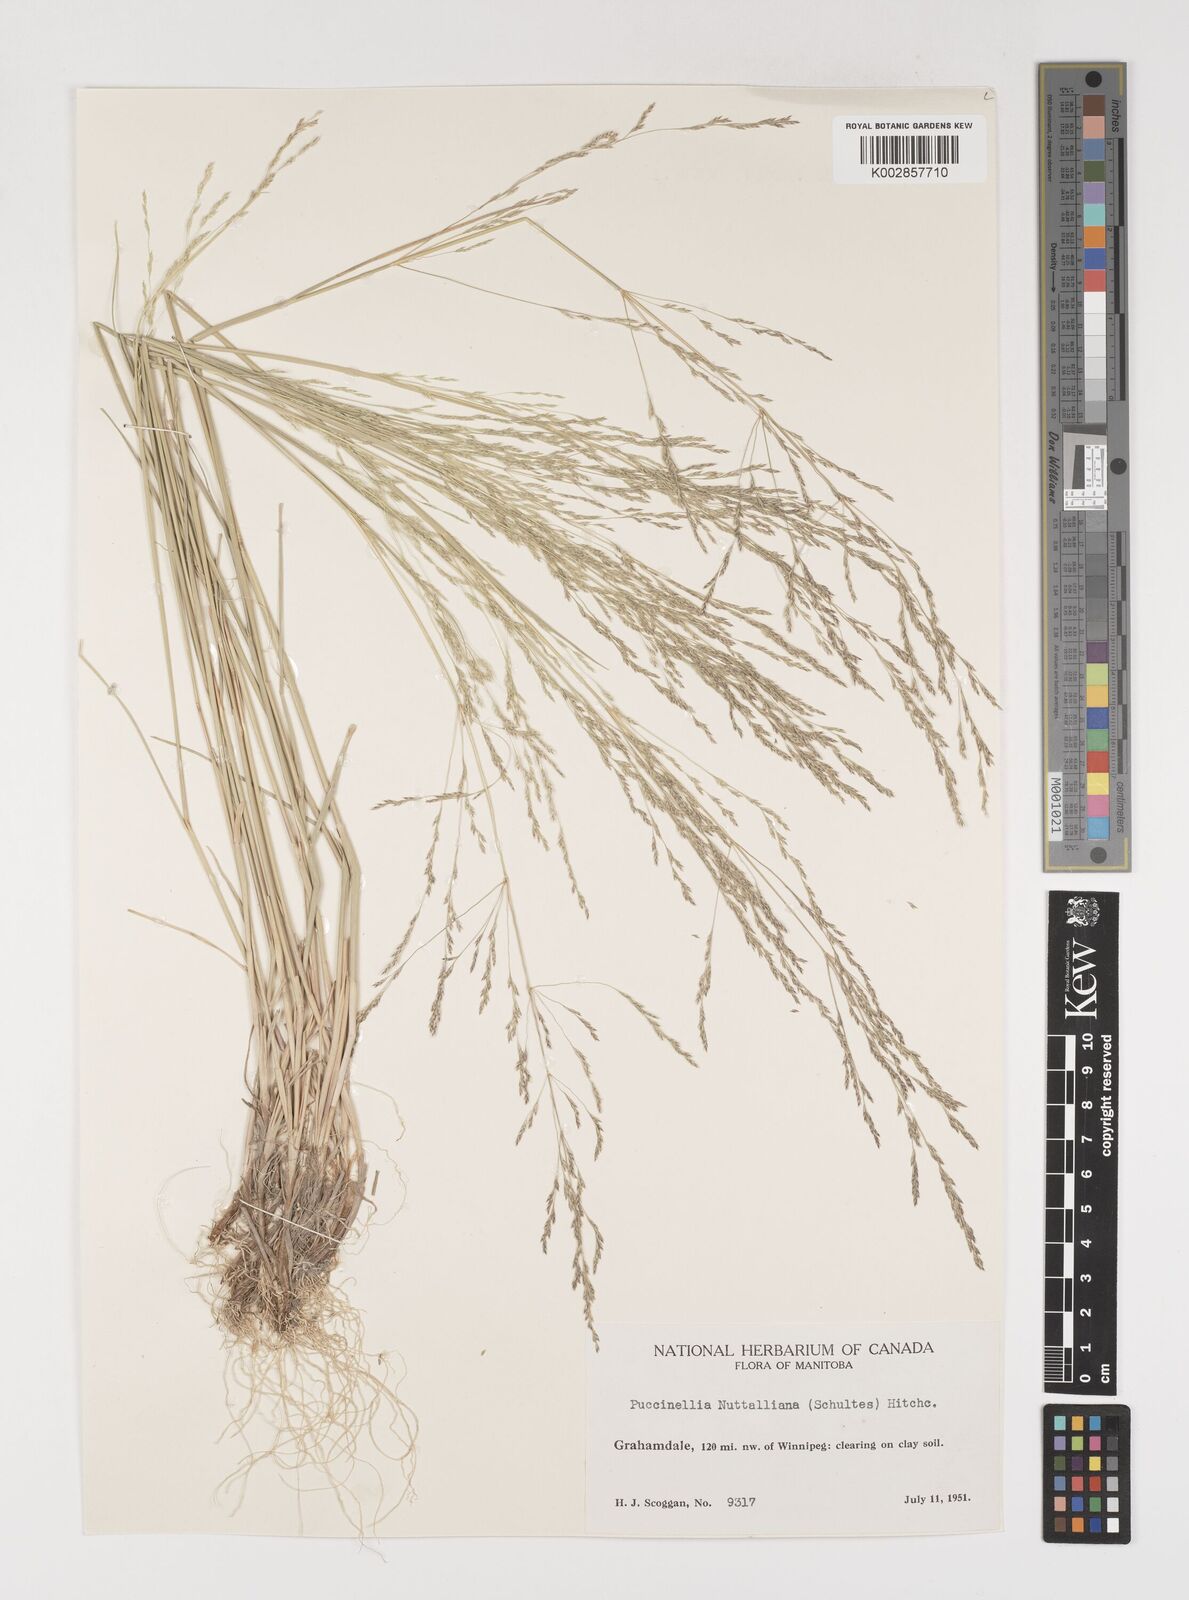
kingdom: Plantae
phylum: Tracheophyta
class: Liliopsida
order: Poales
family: Poaceae
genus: Puccinellia
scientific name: Puccinellia nuttalliana
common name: Nuttall's alkali grass
